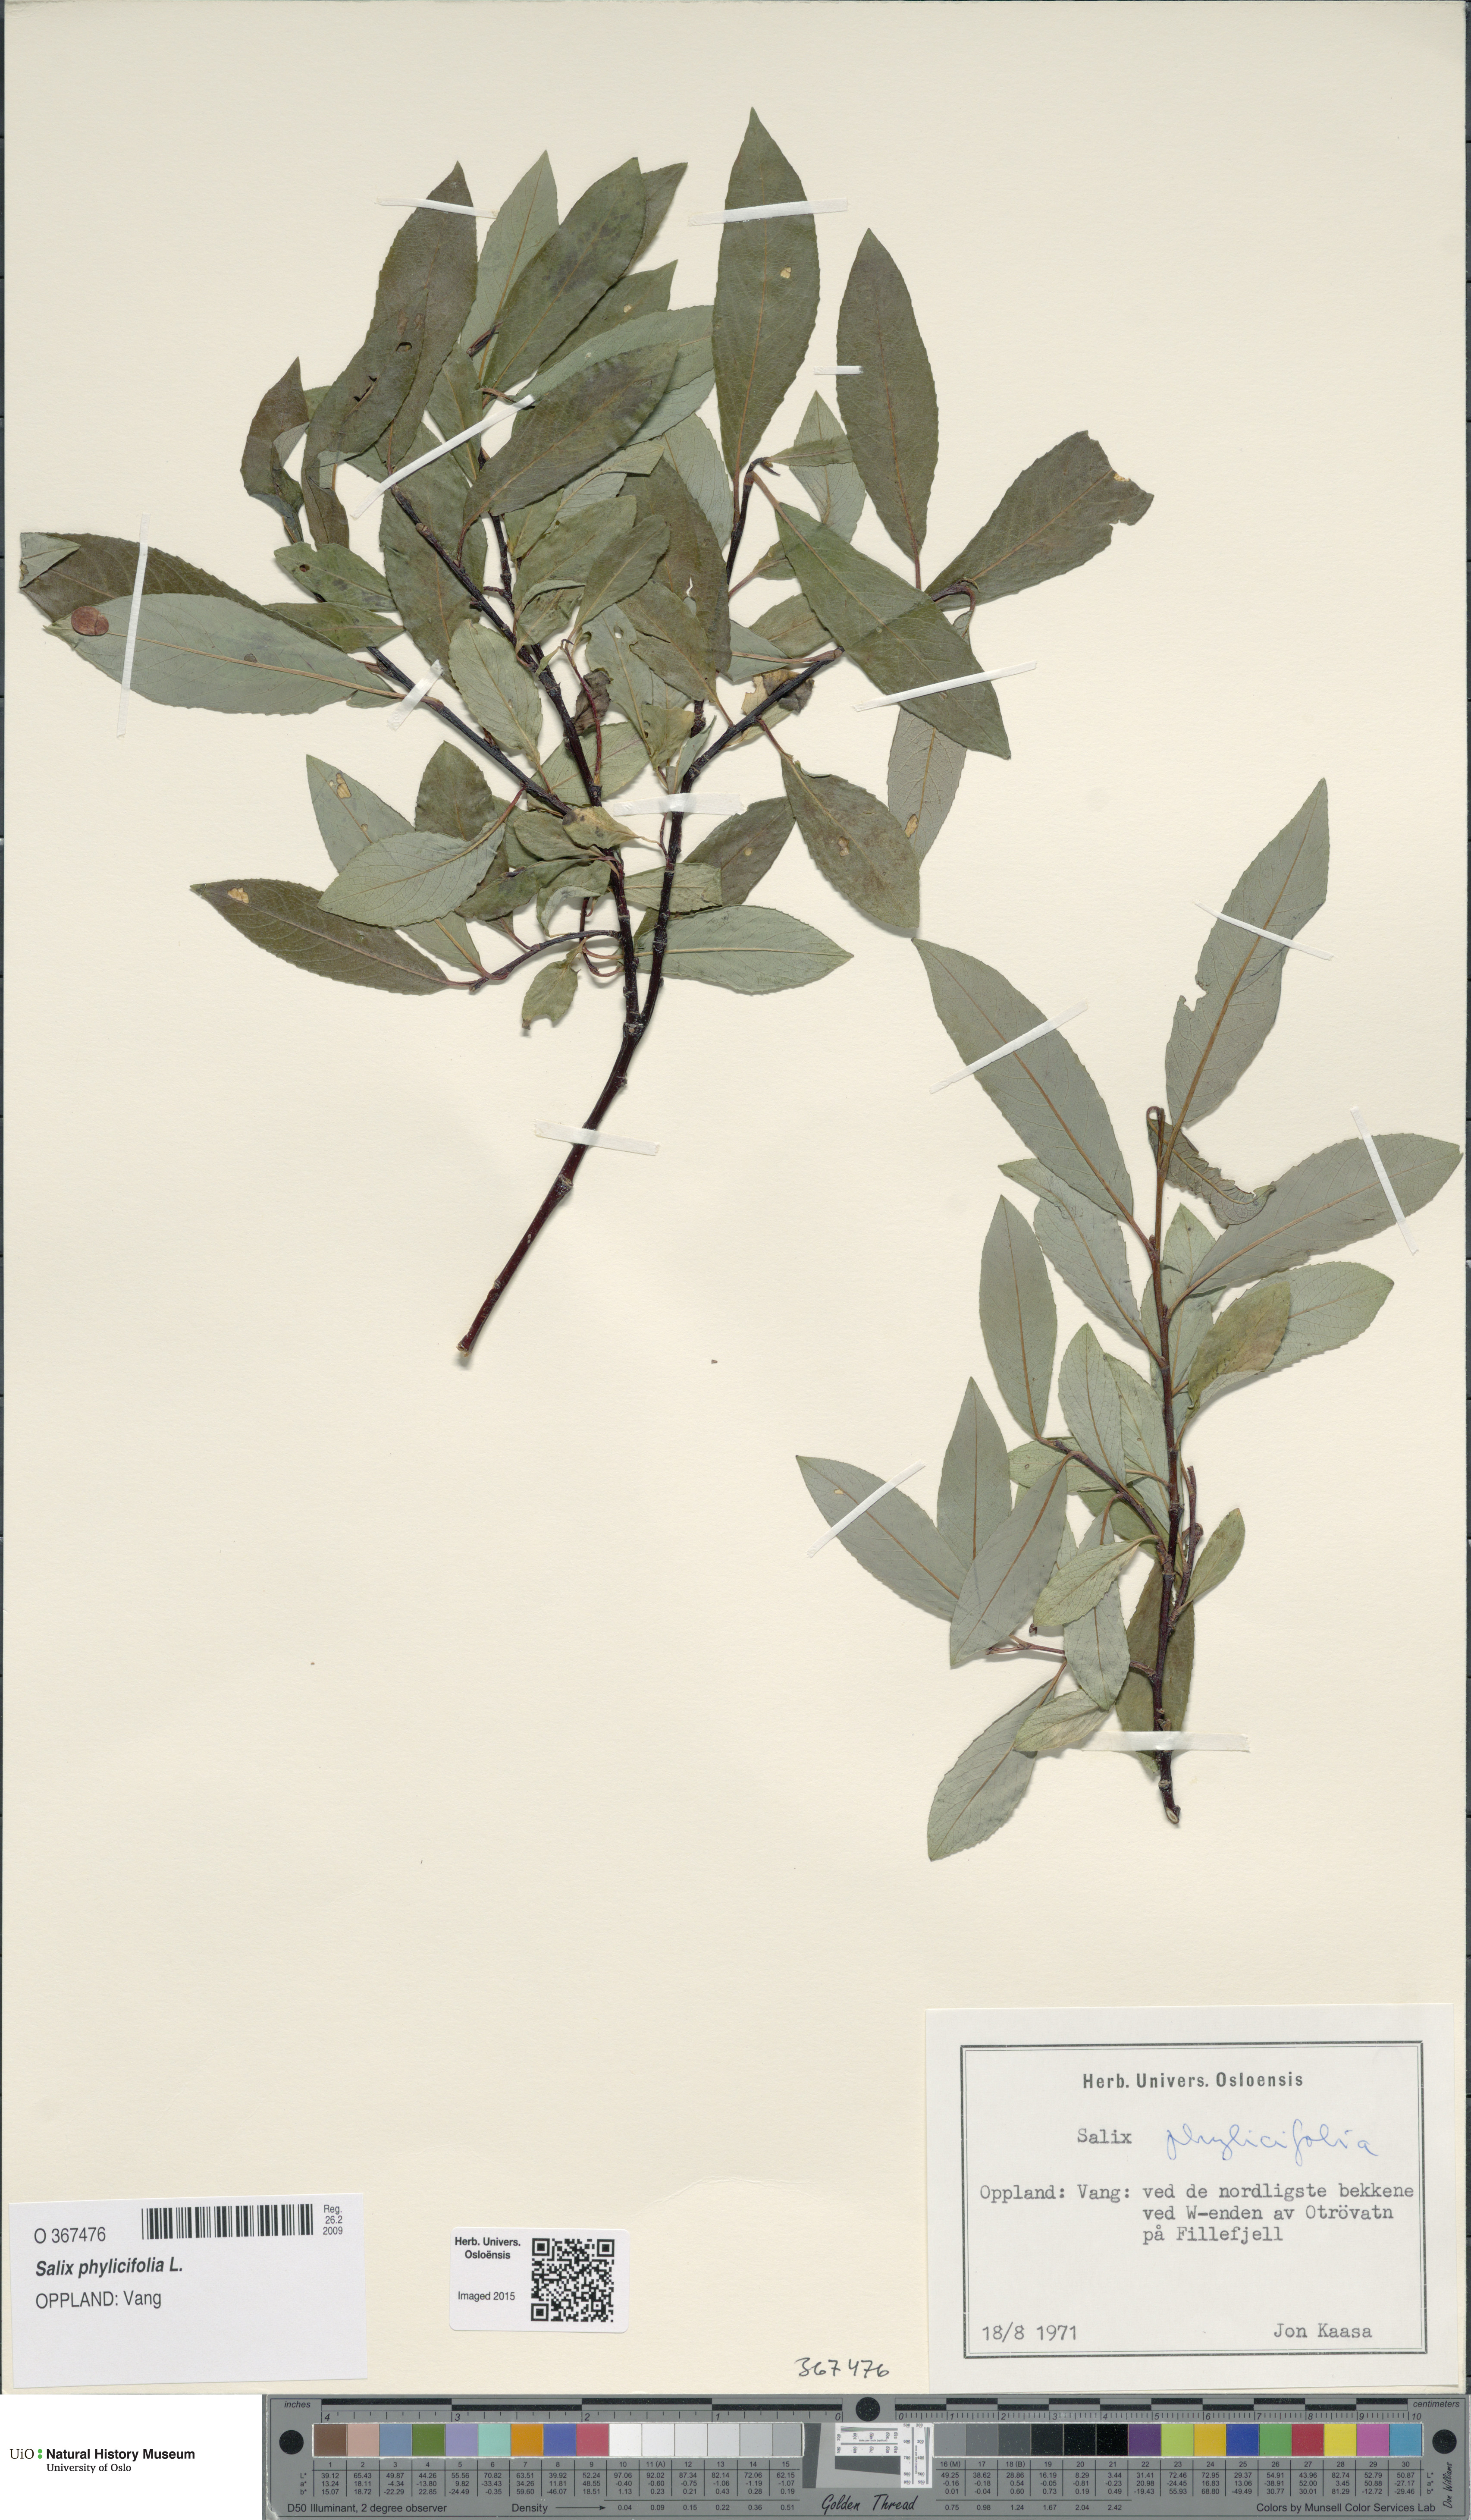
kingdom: Plantae
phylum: Tracheophyta
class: Magnoliopsida
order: Malpighiales
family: Salicaceae
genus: Salix
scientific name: Salix phylicifolia
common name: Tea-leaved willow
